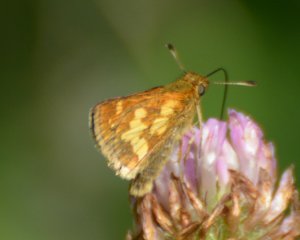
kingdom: Animalia
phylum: Arthropoda
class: Insecta
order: Lepidoptera
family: Hesperiidae
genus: Polites
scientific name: Polites coras
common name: Peck's Skipper
